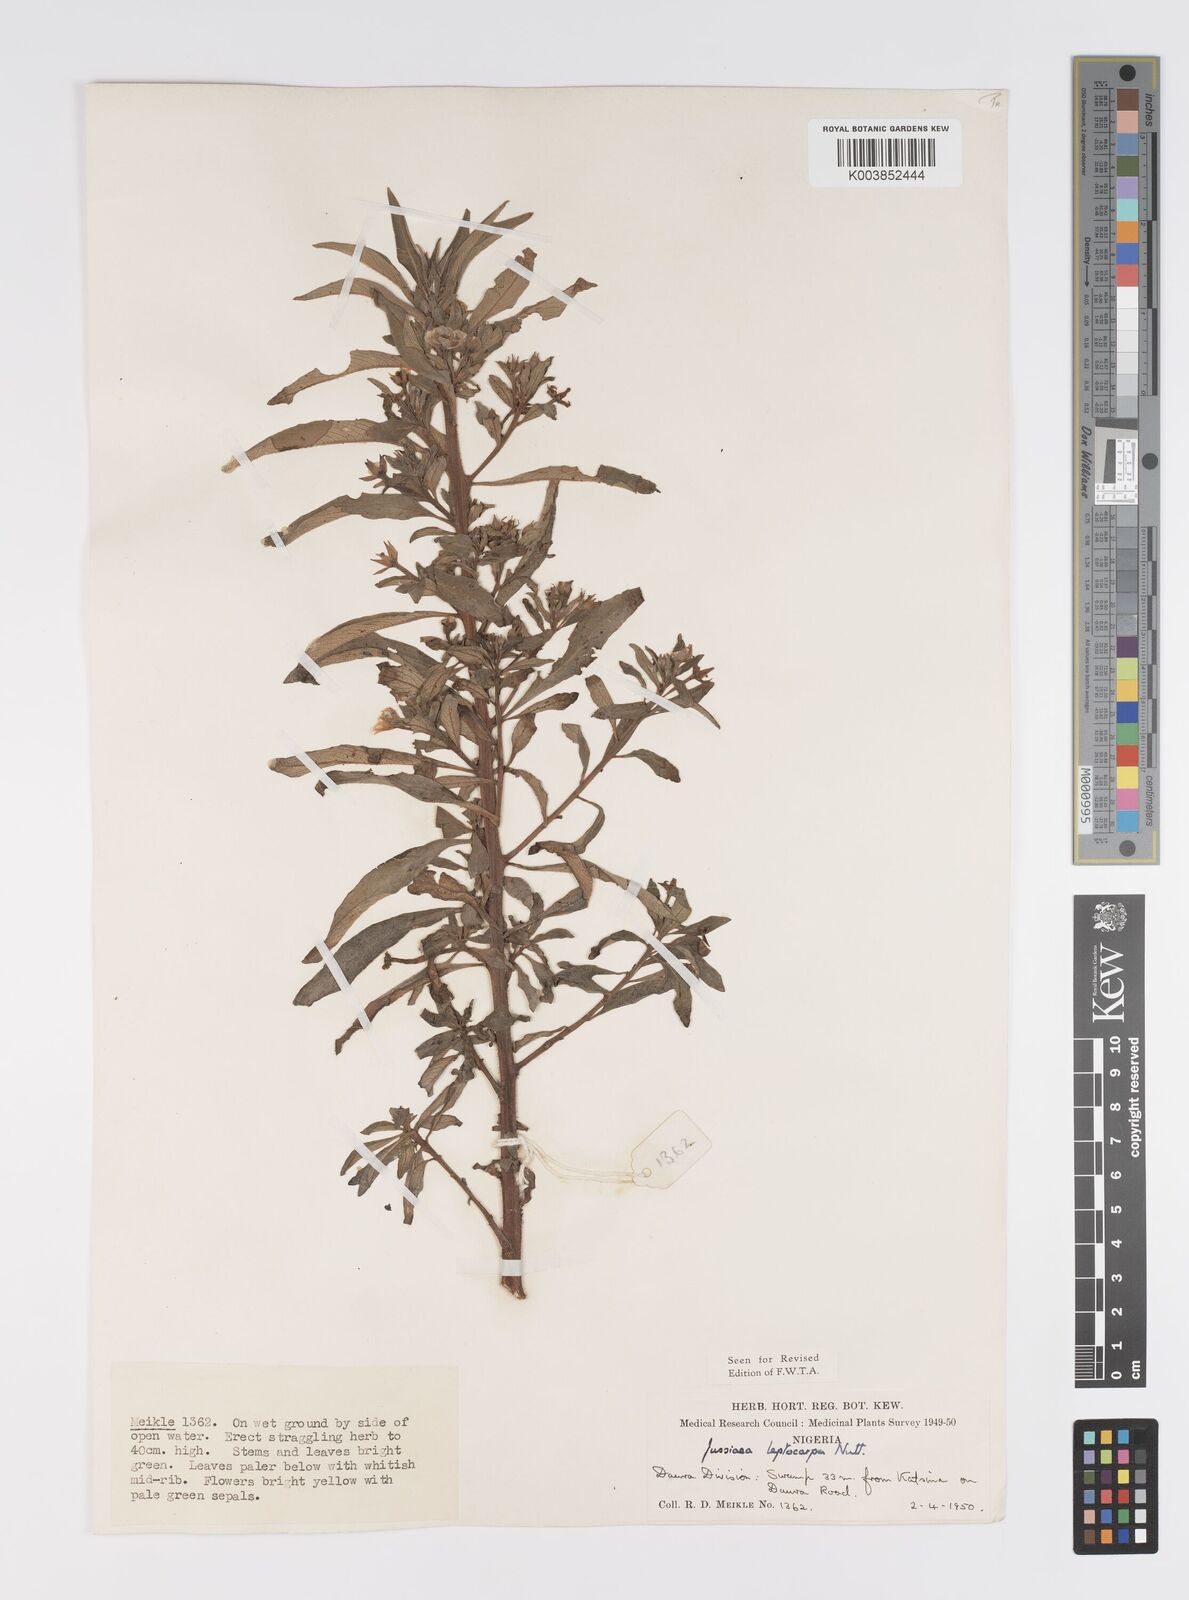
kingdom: Plantae
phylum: Tracheophyta
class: Magnoliopsida
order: Myrtales
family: Onagraceae
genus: Ludwigia
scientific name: Ludwigia leptocarpa
